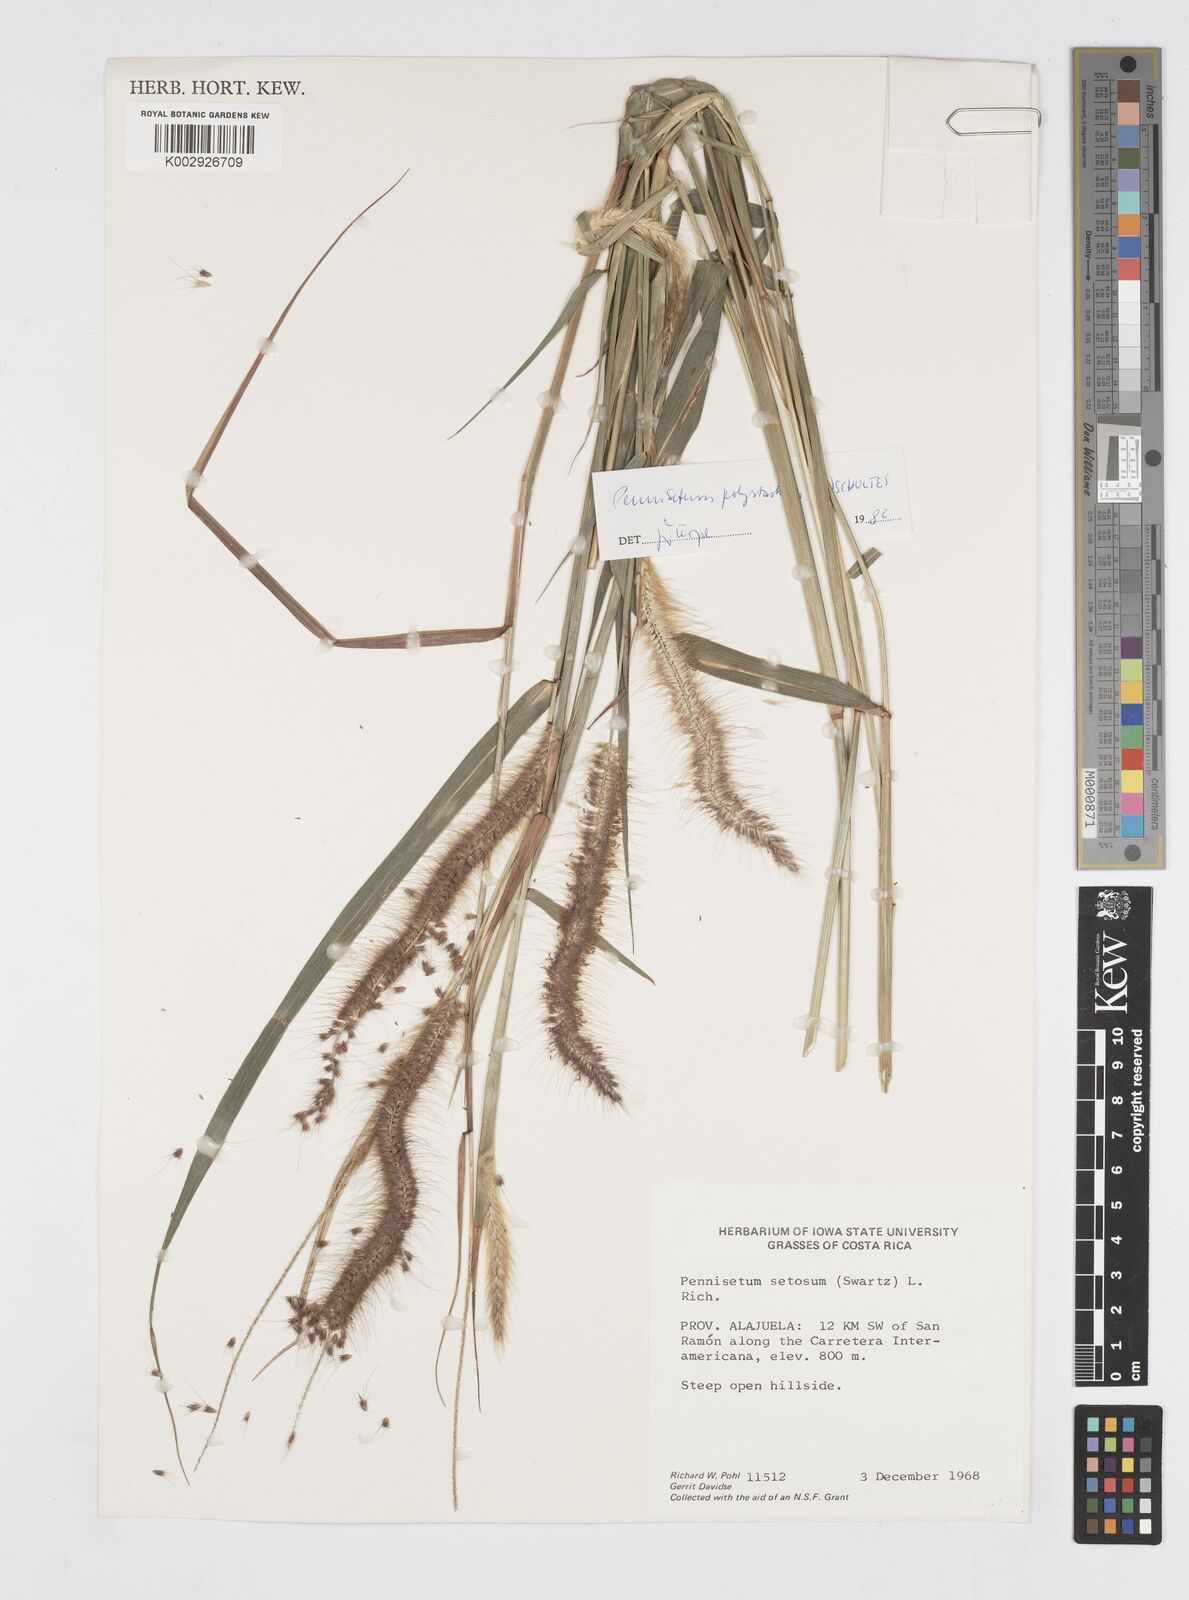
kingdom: Plantae
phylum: Tracheophyta
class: Liliopsida
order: Poales
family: Poaceae
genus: Cenchrus
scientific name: Cenchrus setosus
